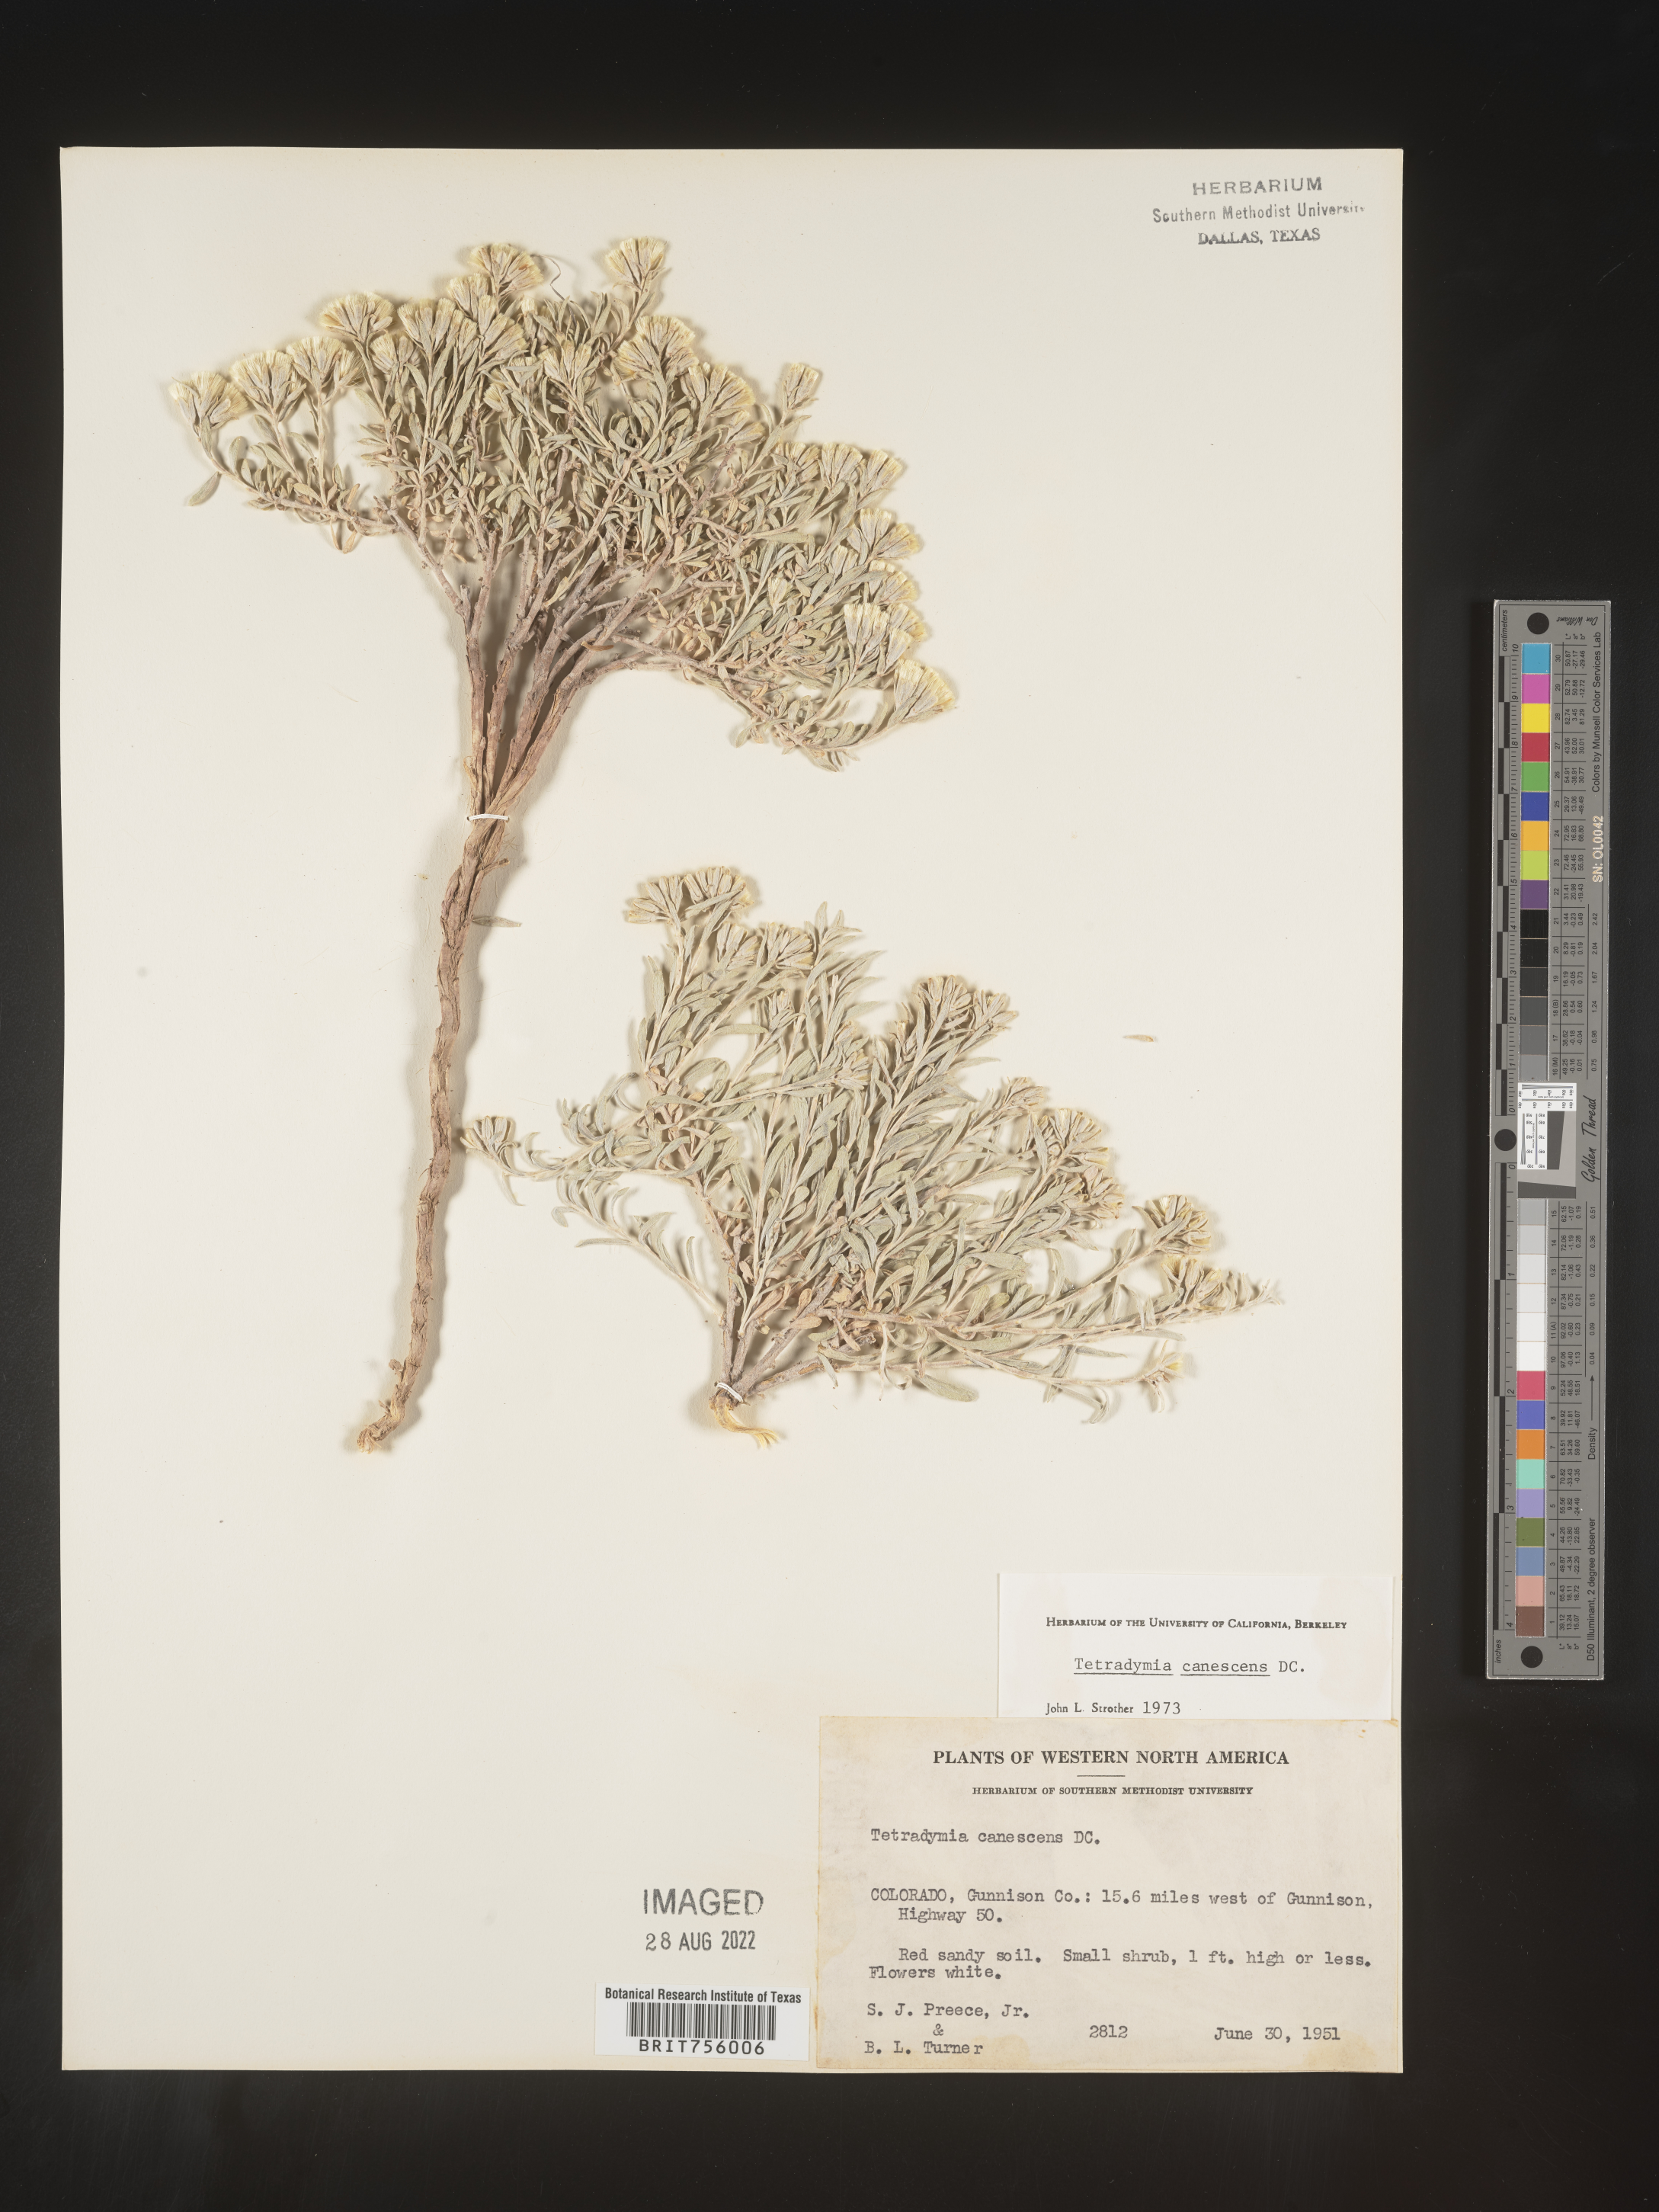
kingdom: Plantae
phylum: Tracheophyta
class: Magnoliopsida
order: Asterales
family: Asteraceae
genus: Tetradymia
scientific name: Tetradymia canescens
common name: Spineless horsebrush
